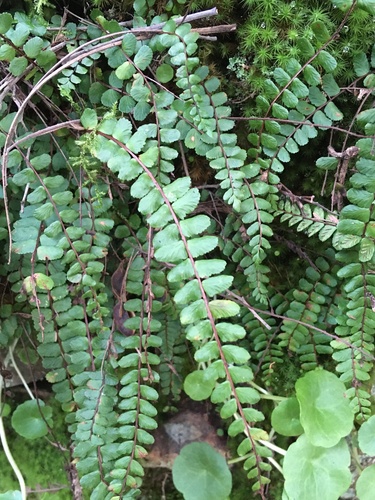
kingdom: Plantae
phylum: Tracheophyta
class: Polypodiopsida
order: Polypodiales
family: Aspleniaceae
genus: Asplenium
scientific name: Asplenium trichomanes
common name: Maidenhair spleenwort
